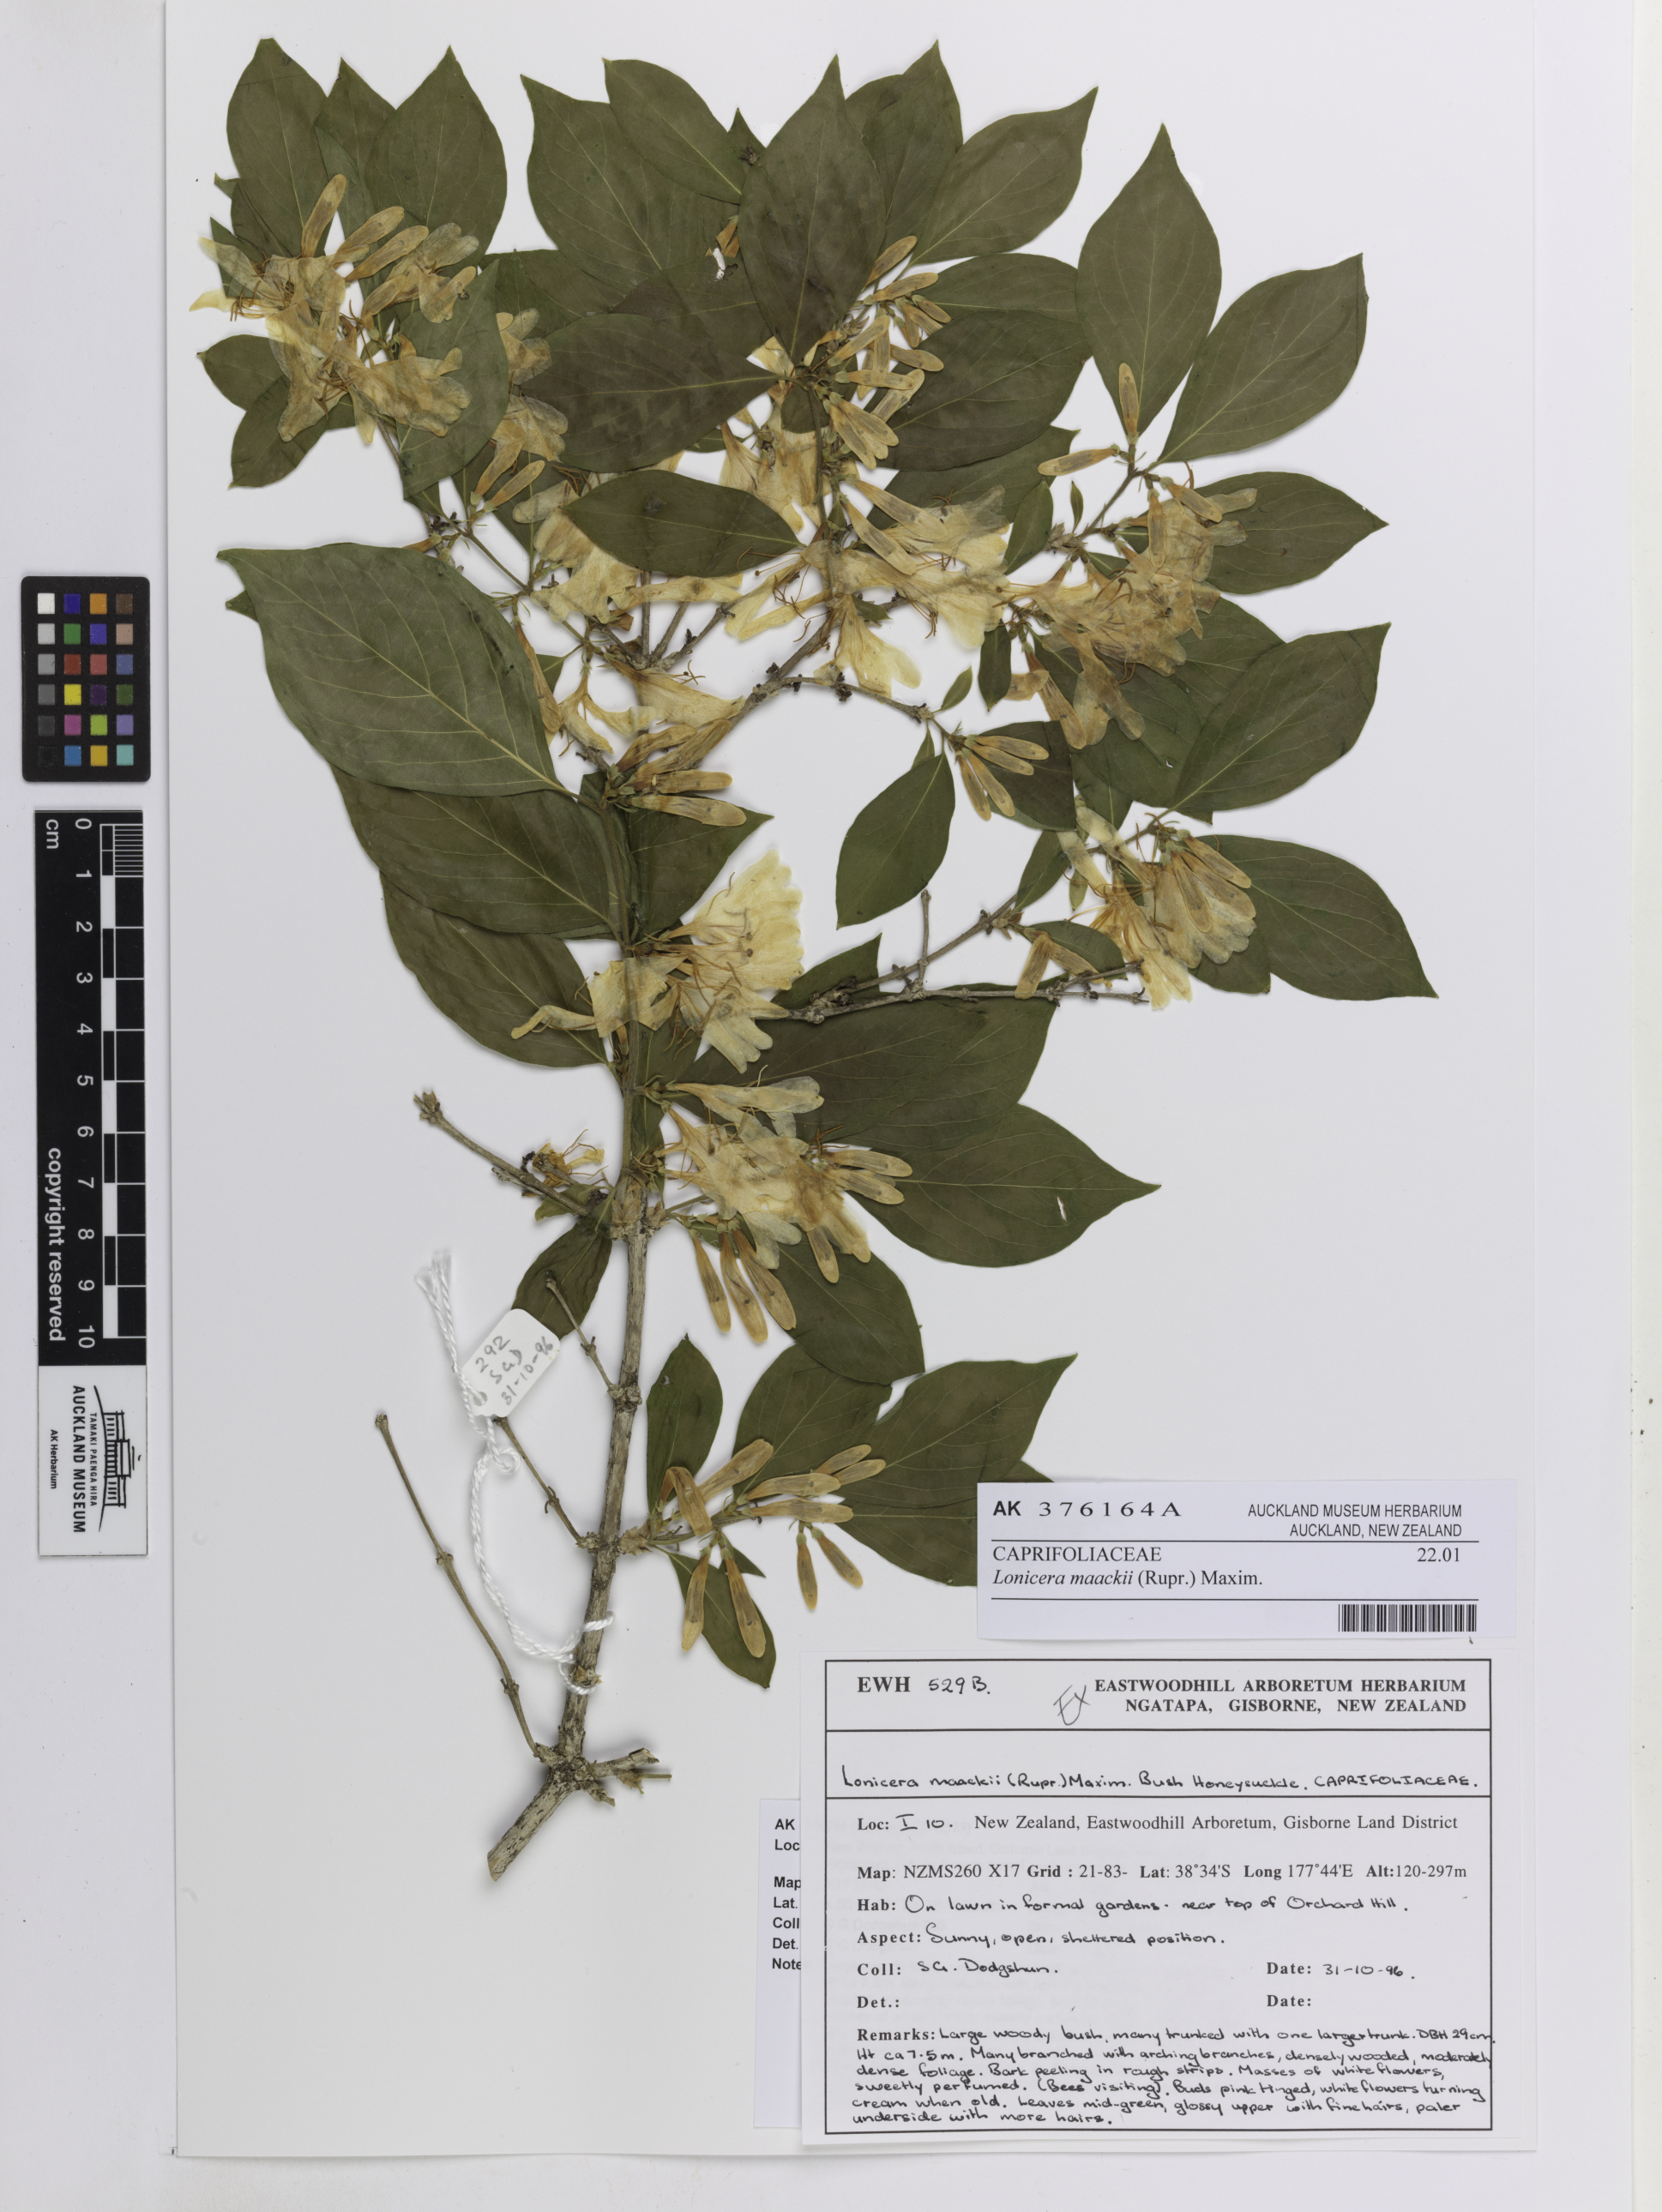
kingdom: Plantae
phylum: Tracheophyta
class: Magnoliopsida
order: Dipsacales
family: Caprifoliaceae
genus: Lonicera
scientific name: Lonicera maackii
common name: Amur honeysuckle
